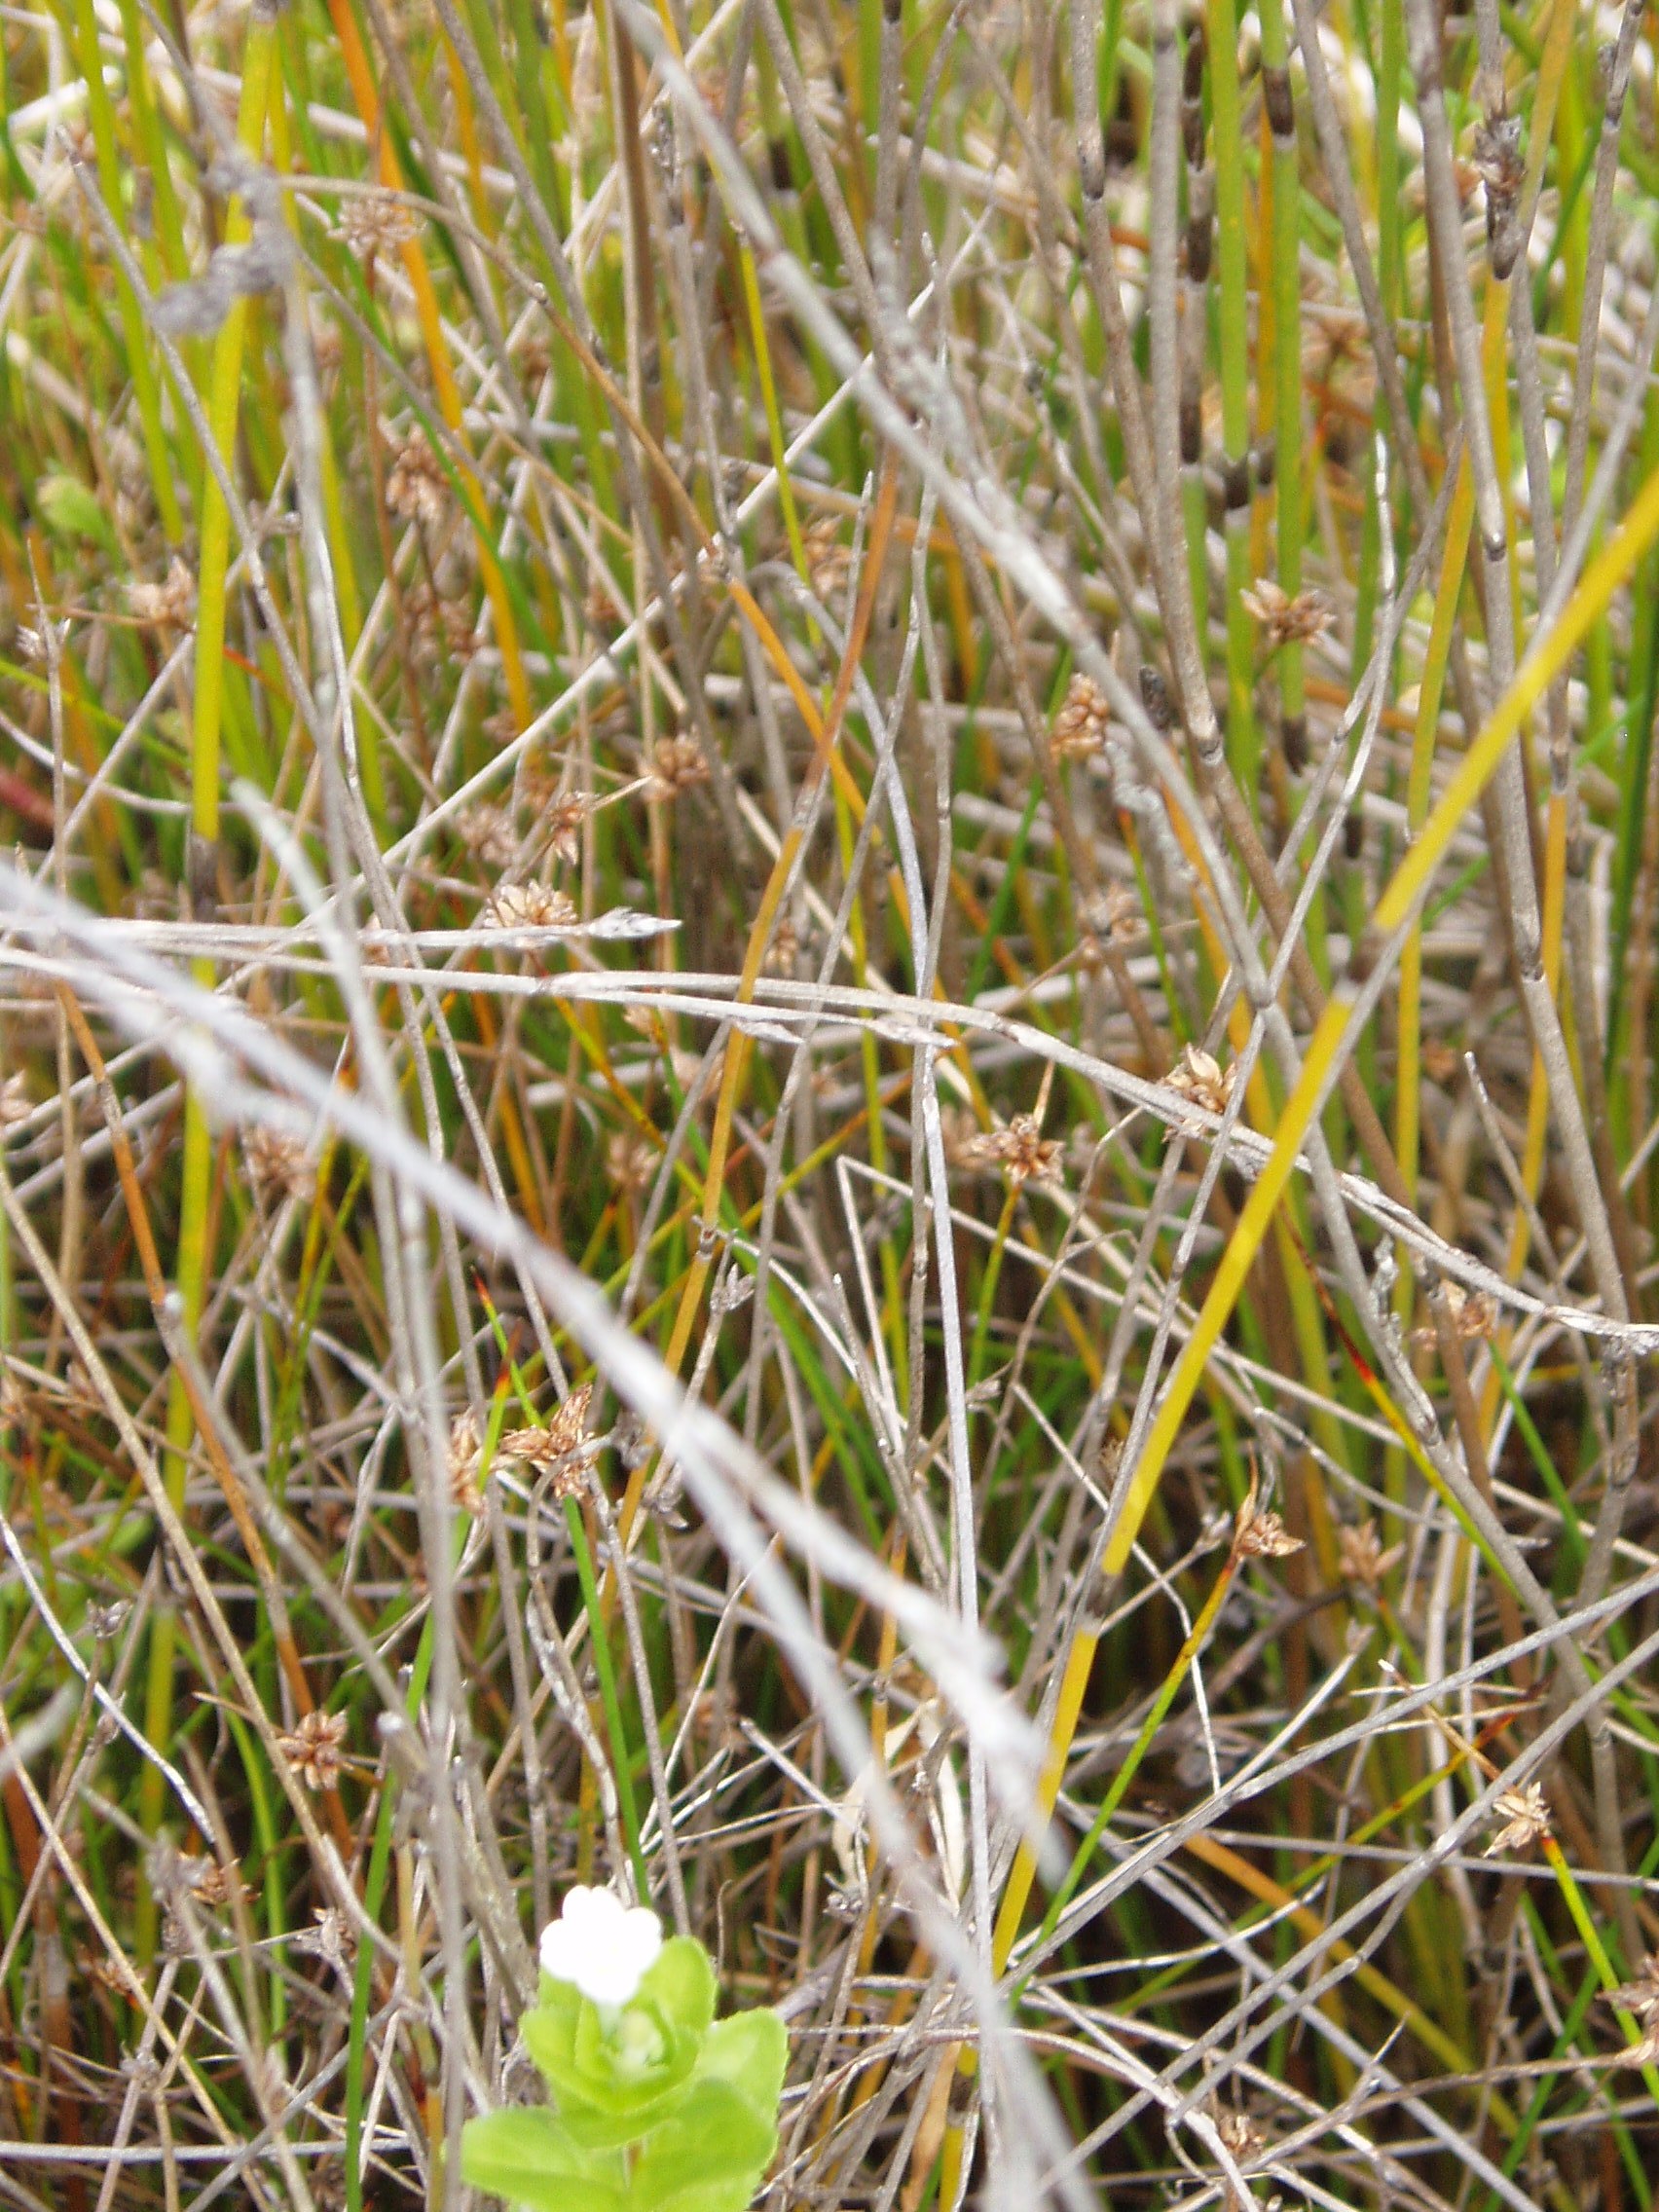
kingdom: Plantae
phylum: Tracheophyta
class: Liliopsida
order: Poales
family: Cyperaceae
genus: Schoenus
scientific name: Schoenus nitens
